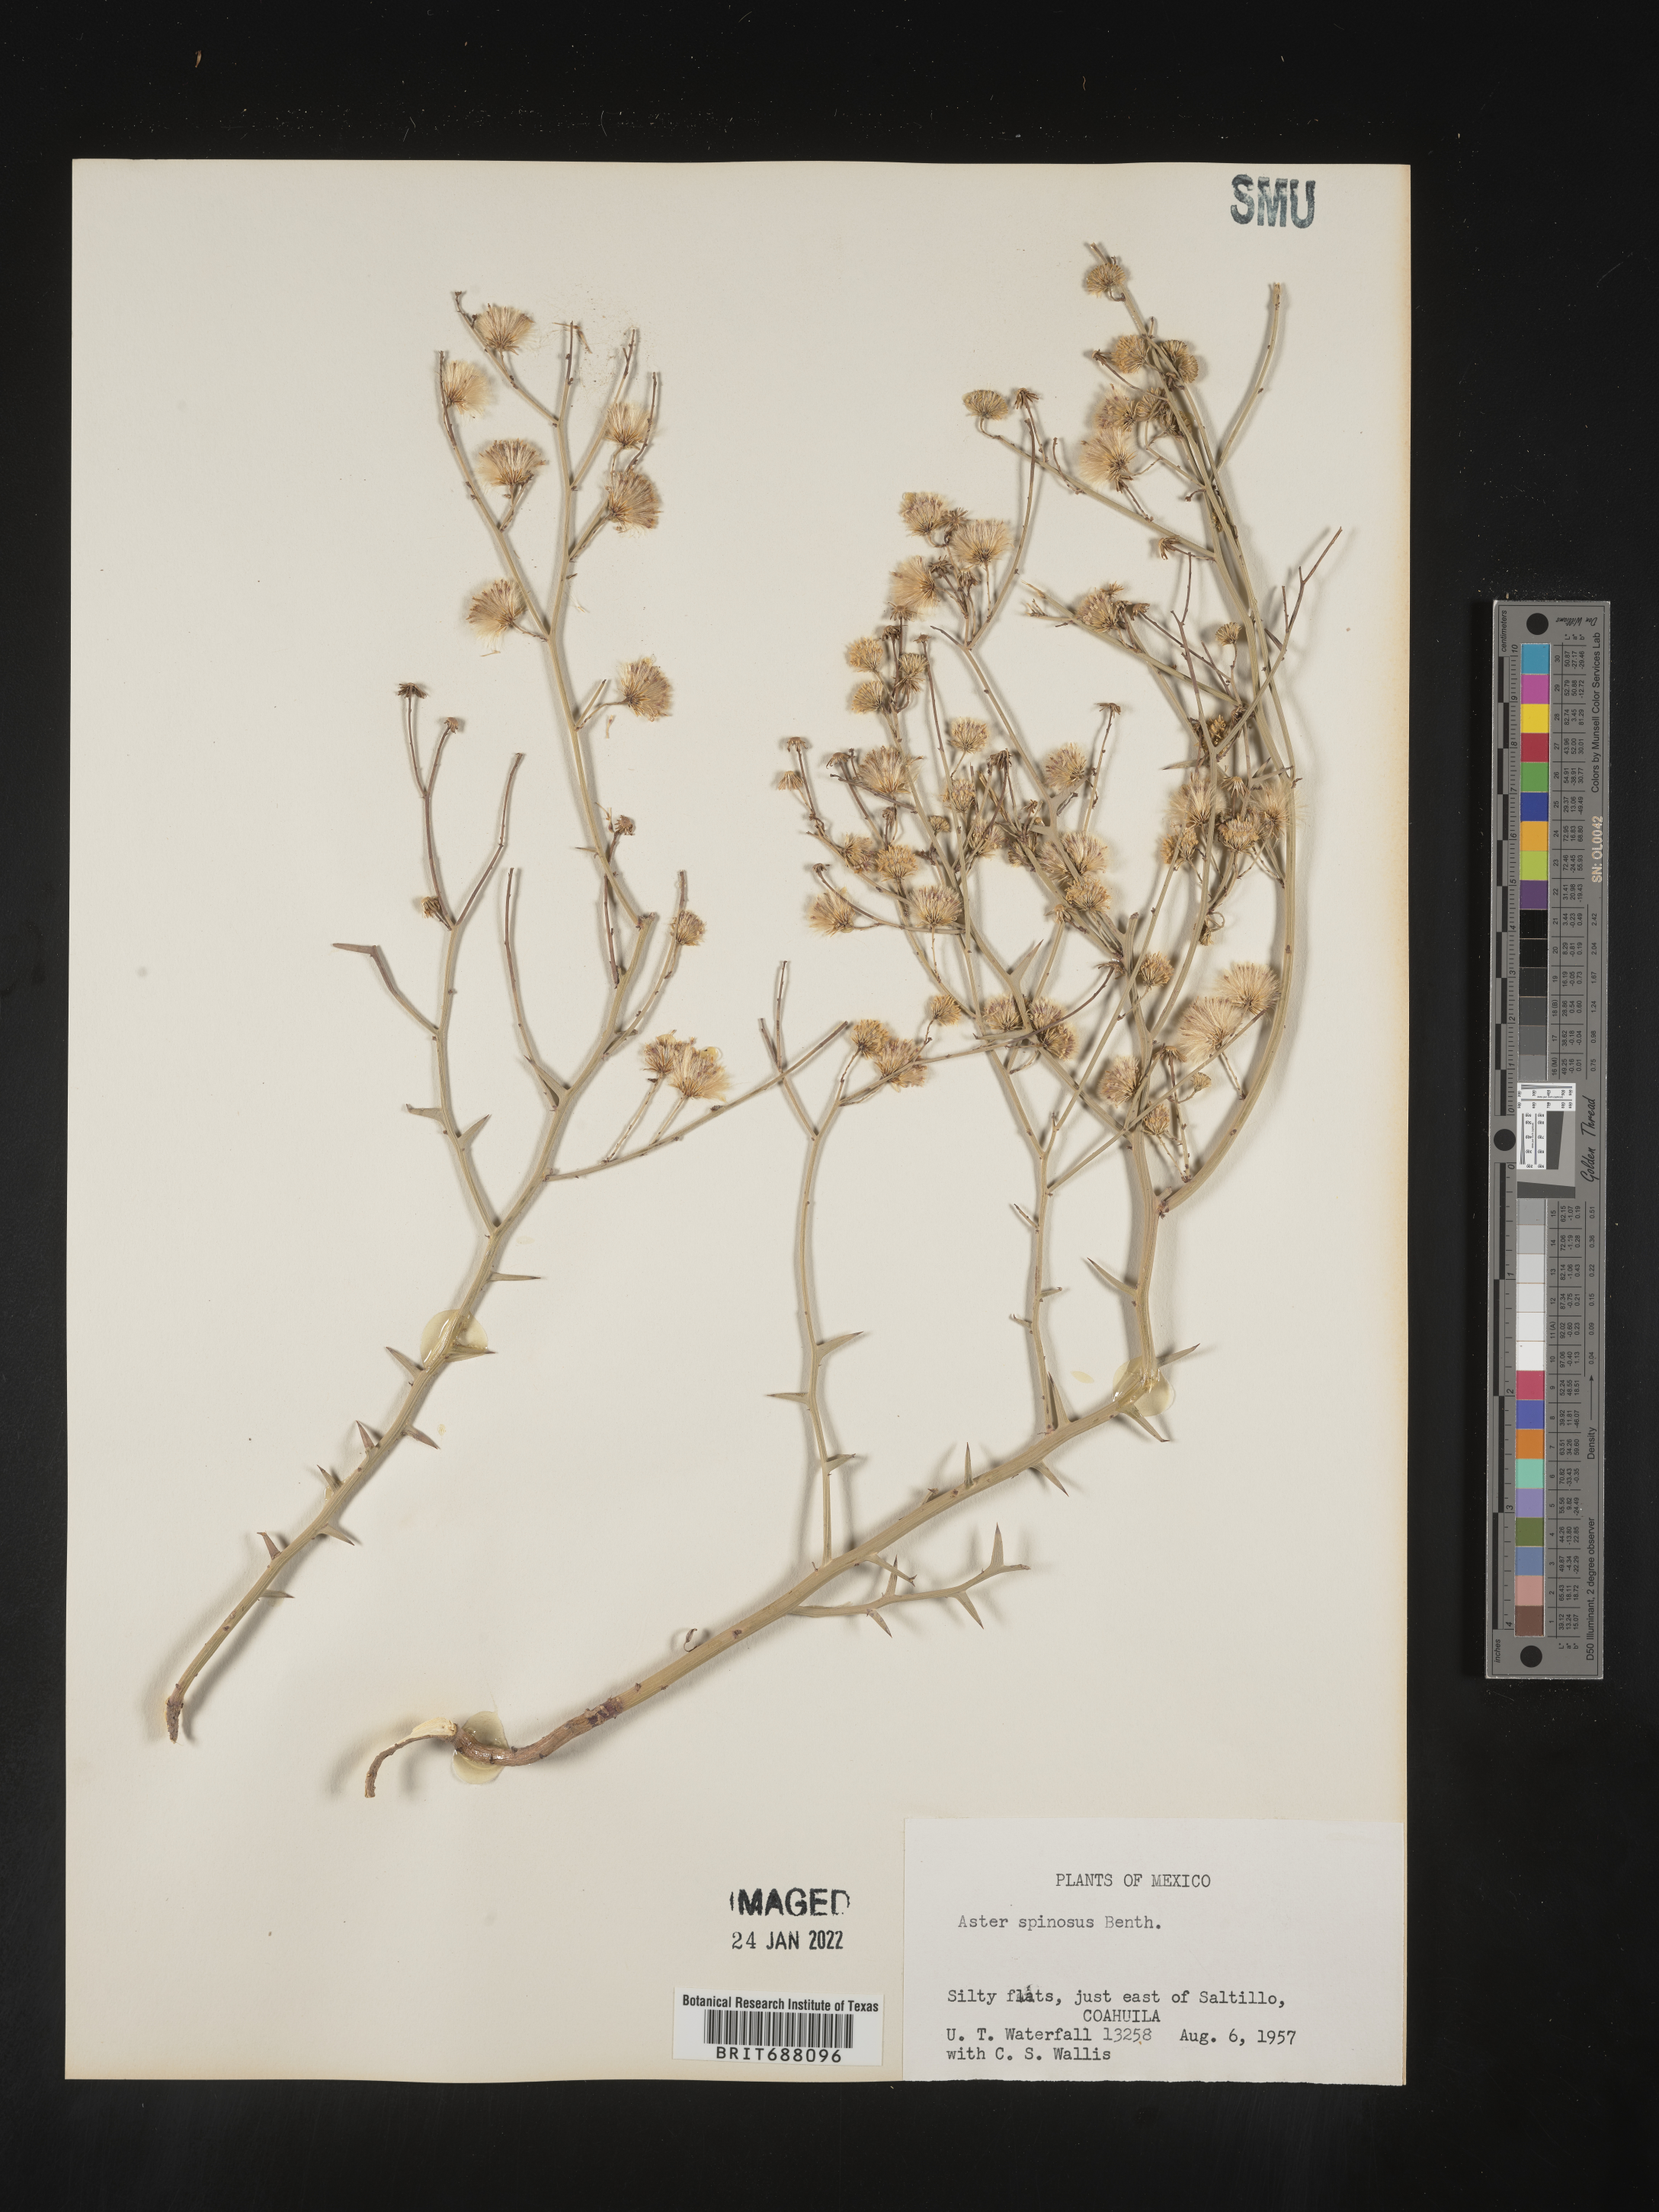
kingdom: Plantae
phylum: Tracheophyta
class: Magnoliopsida
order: Asterales
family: Asteraceae
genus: Chloracantha
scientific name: Chloracantha
